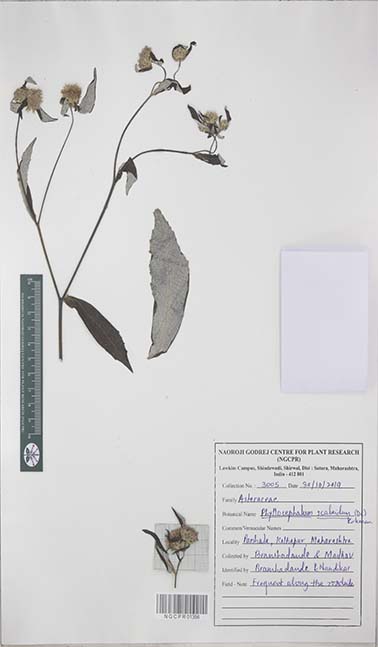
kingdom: Plantae
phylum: Tracheophyta
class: Magnoliopsida
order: Asterales
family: Asteraceae
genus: Phyllocephalum
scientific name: Phyllocephalum scabridum
